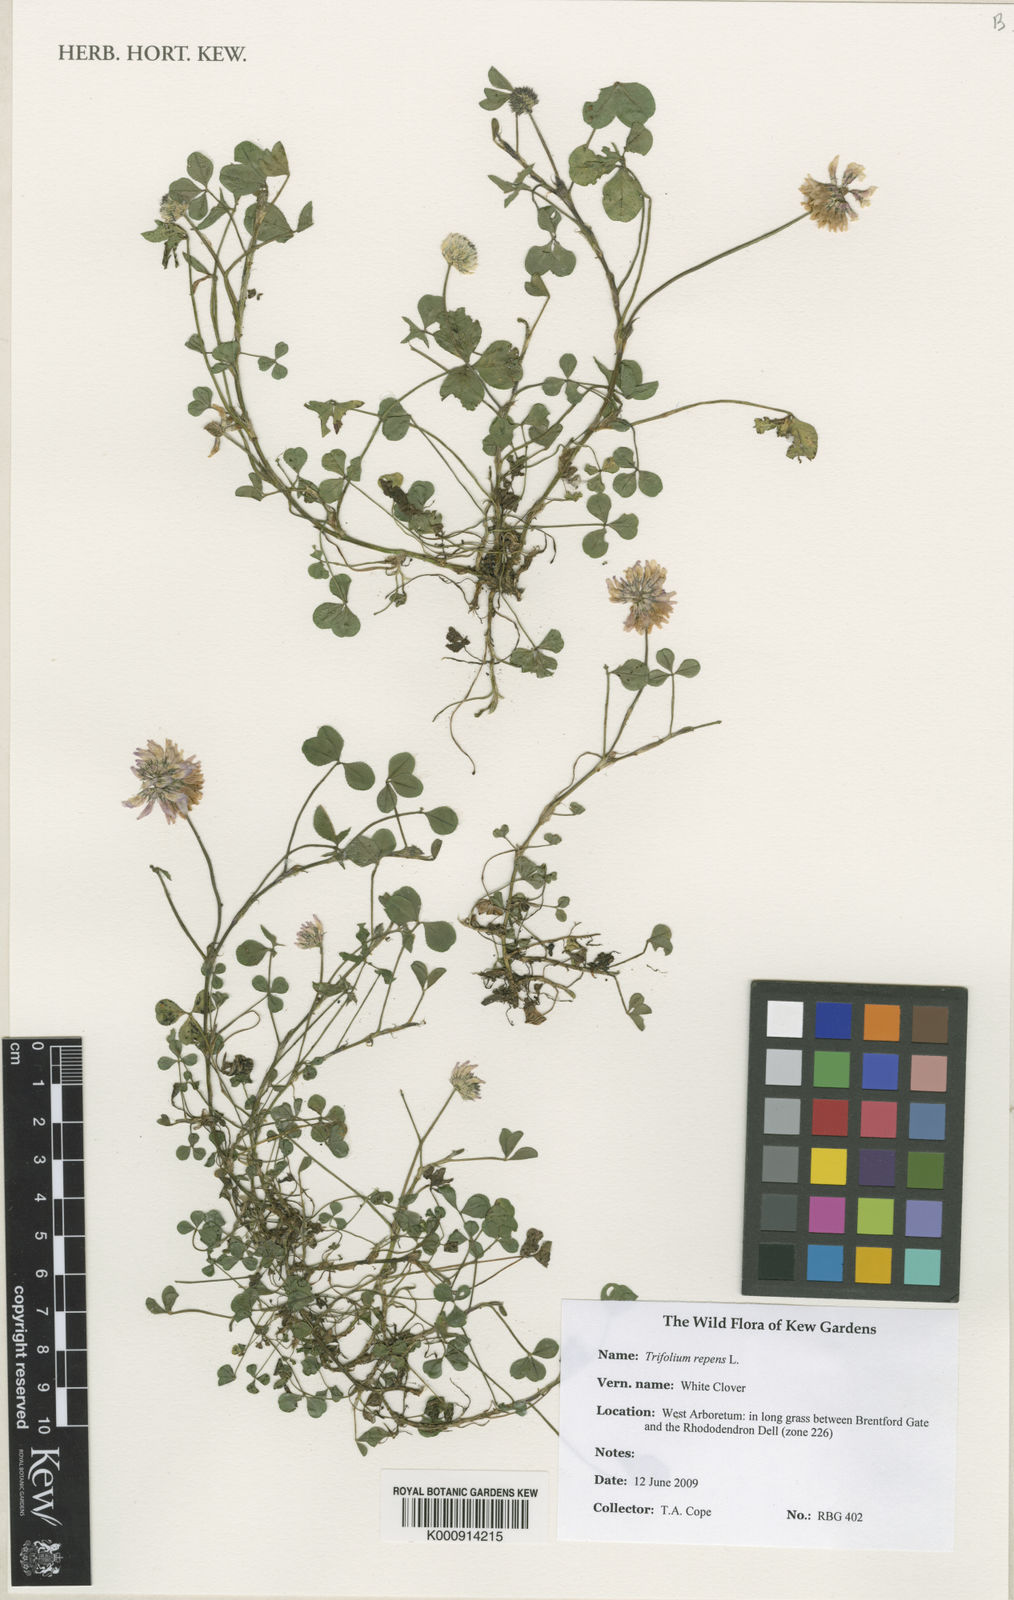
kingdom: Plantae
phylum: Tracheophyta
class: Magnoliopsida
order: Fabales
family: Fabaceae
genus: Trifolium
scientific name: Trifolium repens
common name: White clover
